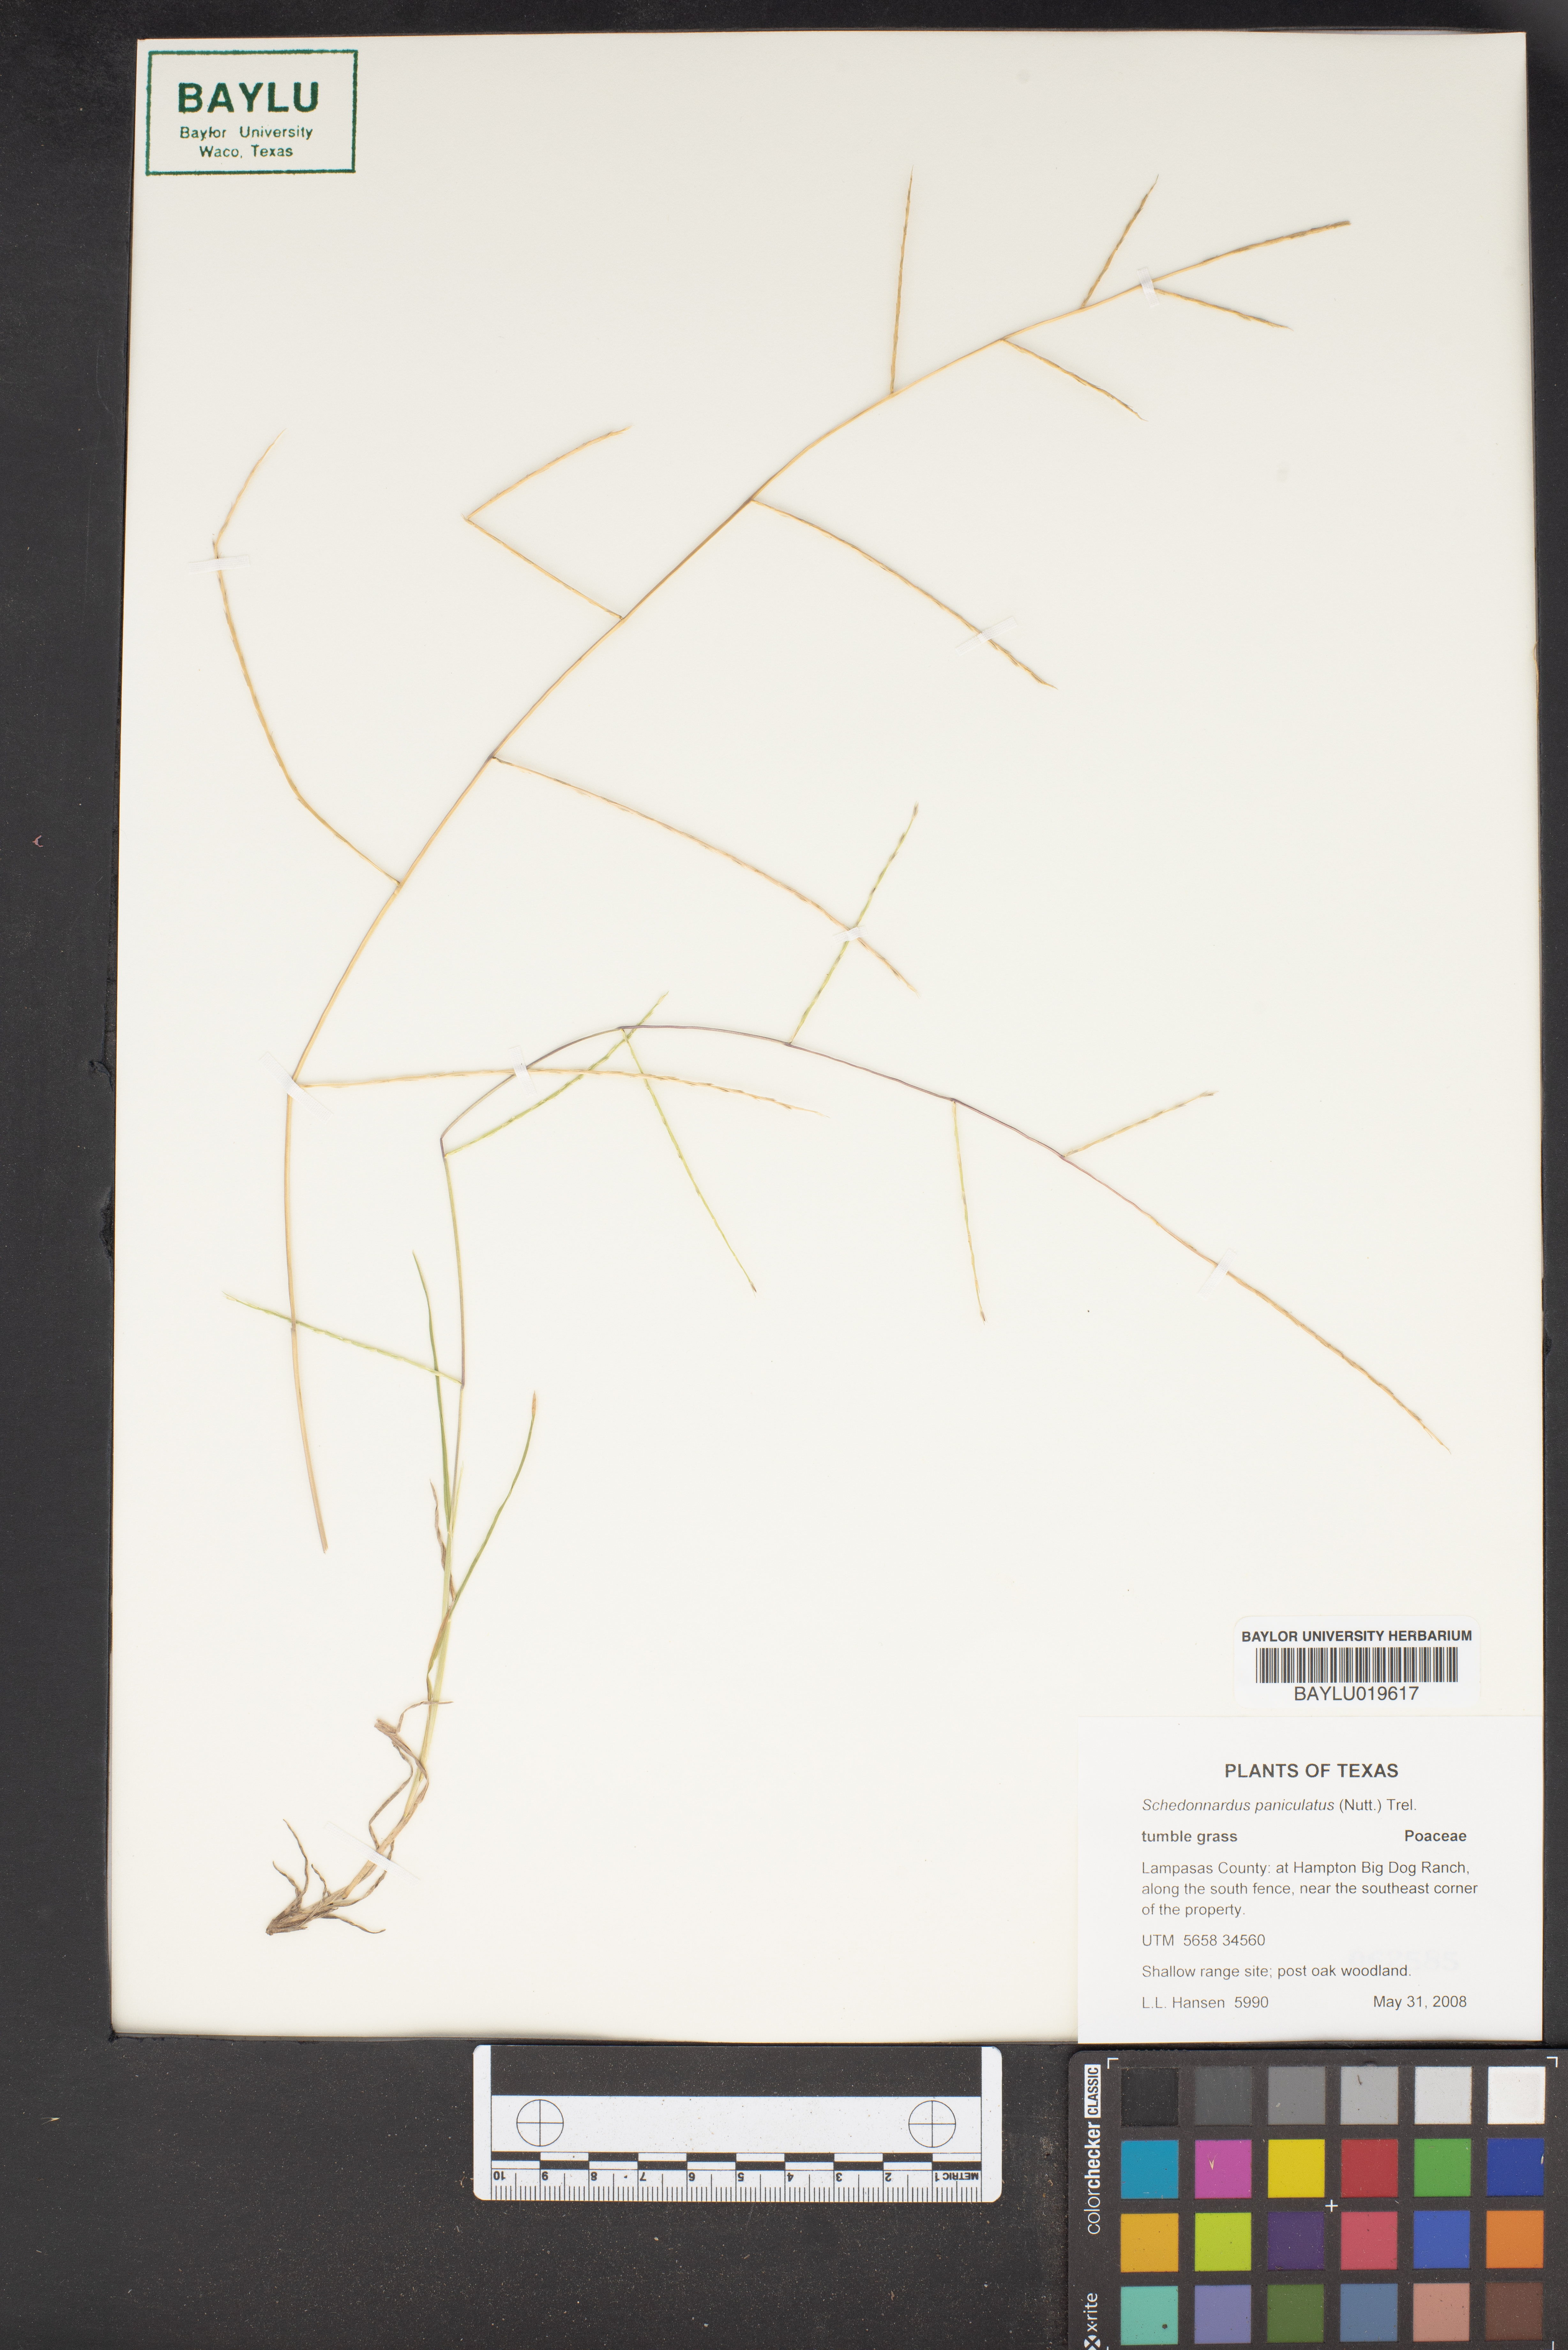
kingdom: Plantae
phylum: Tracheophyta
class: Liliopsida
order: Poales
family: Poaceae
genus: Muhlenbergia
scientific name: Muhlenbergia paniculata
